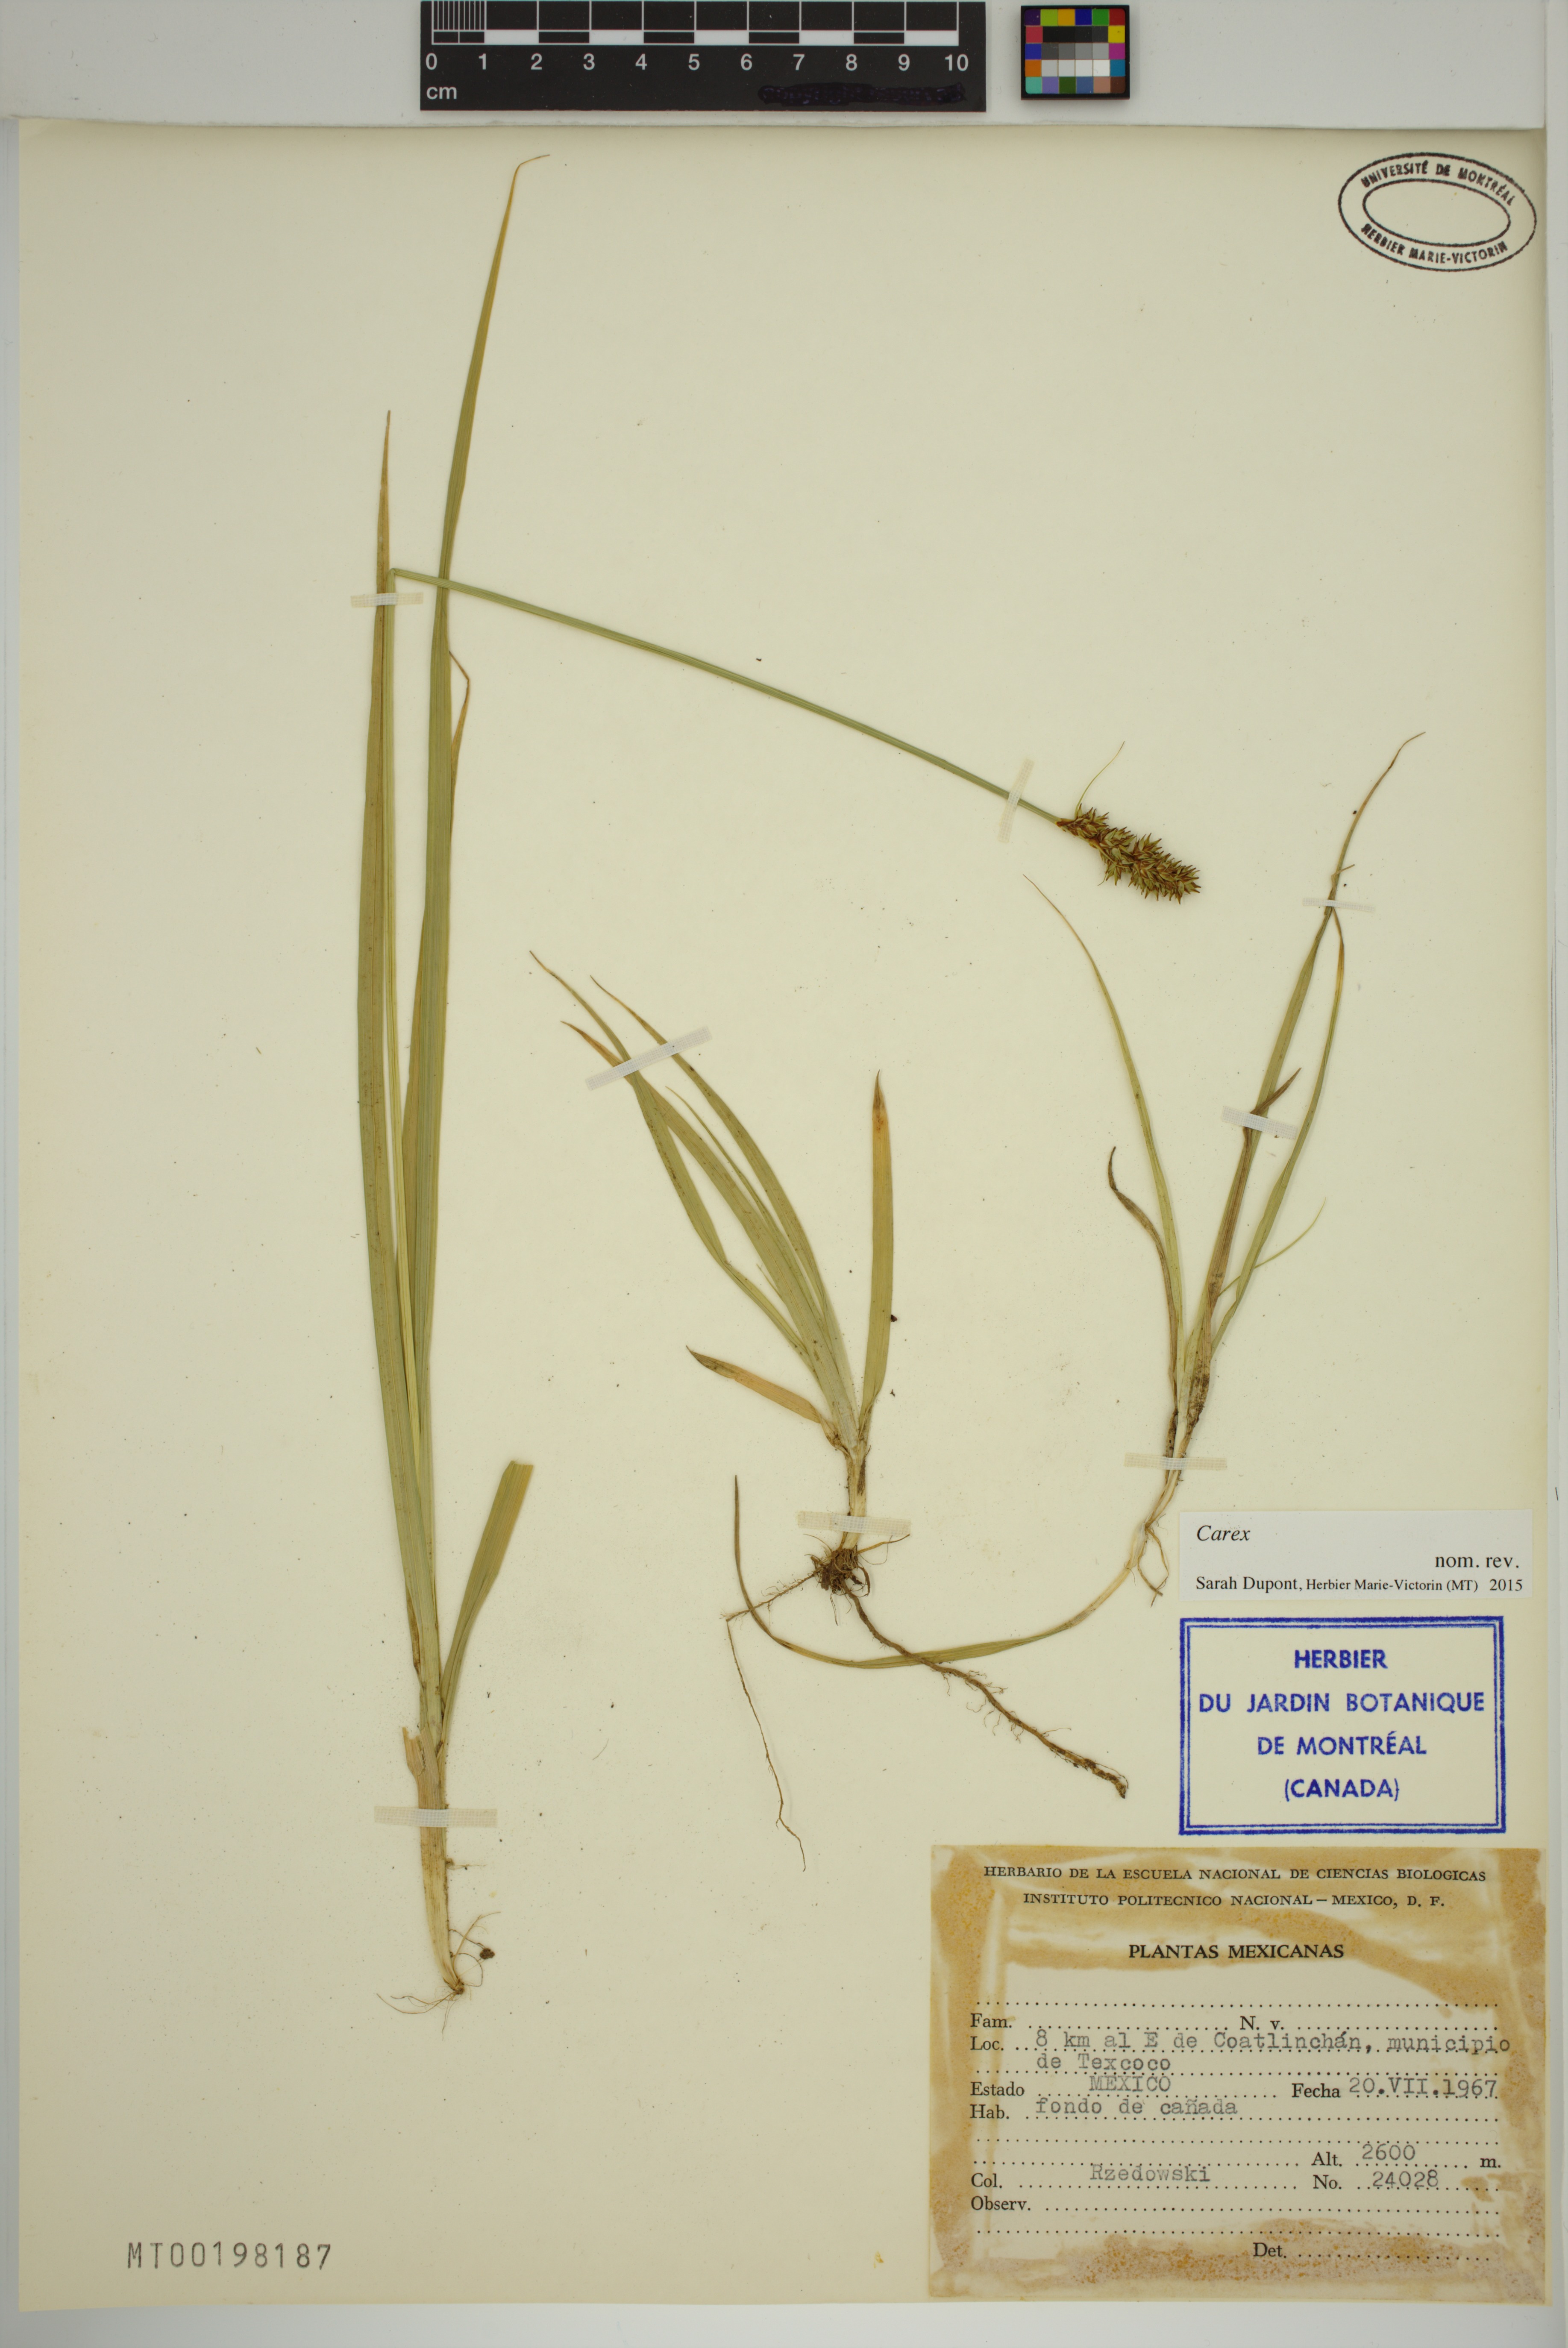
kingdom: Plantae
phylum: Tracheophyta
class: Liliopsida
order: Poales
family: Cyperaceae
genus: Carex
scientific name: Carex
